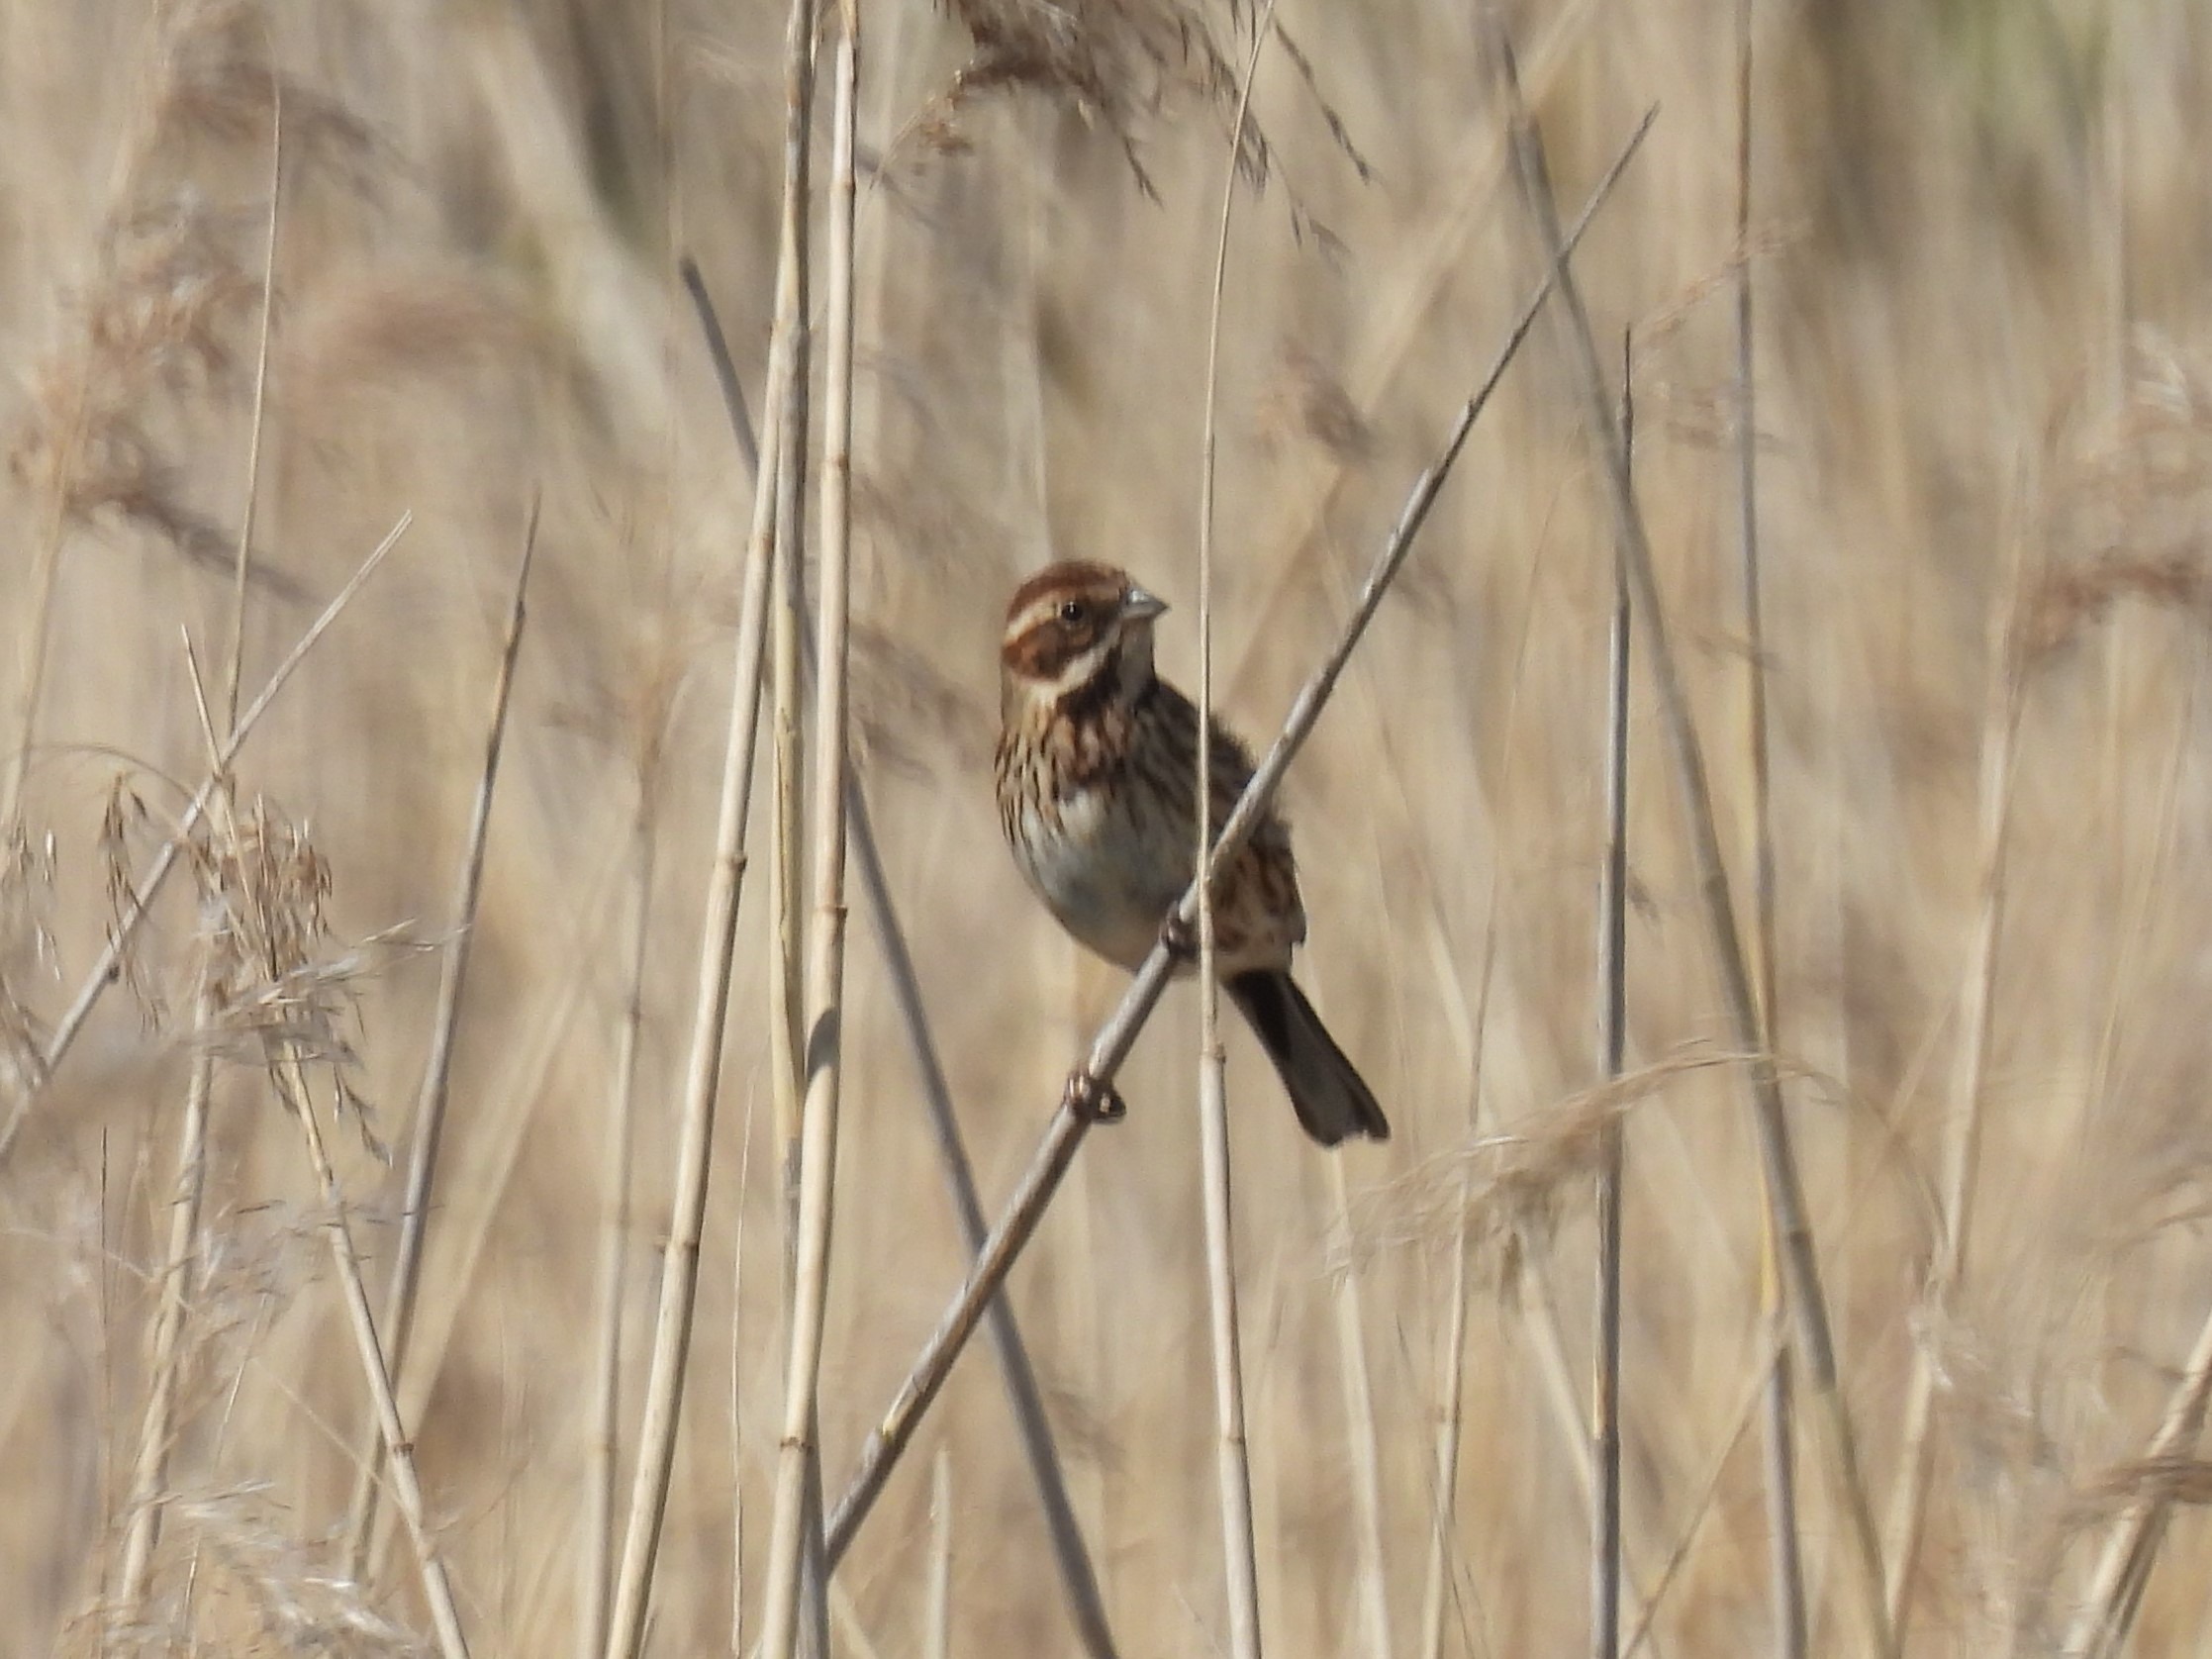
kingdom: Animalia
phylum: Chordata
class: Aves
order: Passeriformes
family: Emberizidae
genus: Emberiza
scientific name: Emberiza schoeniclus
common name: Rørspurv
